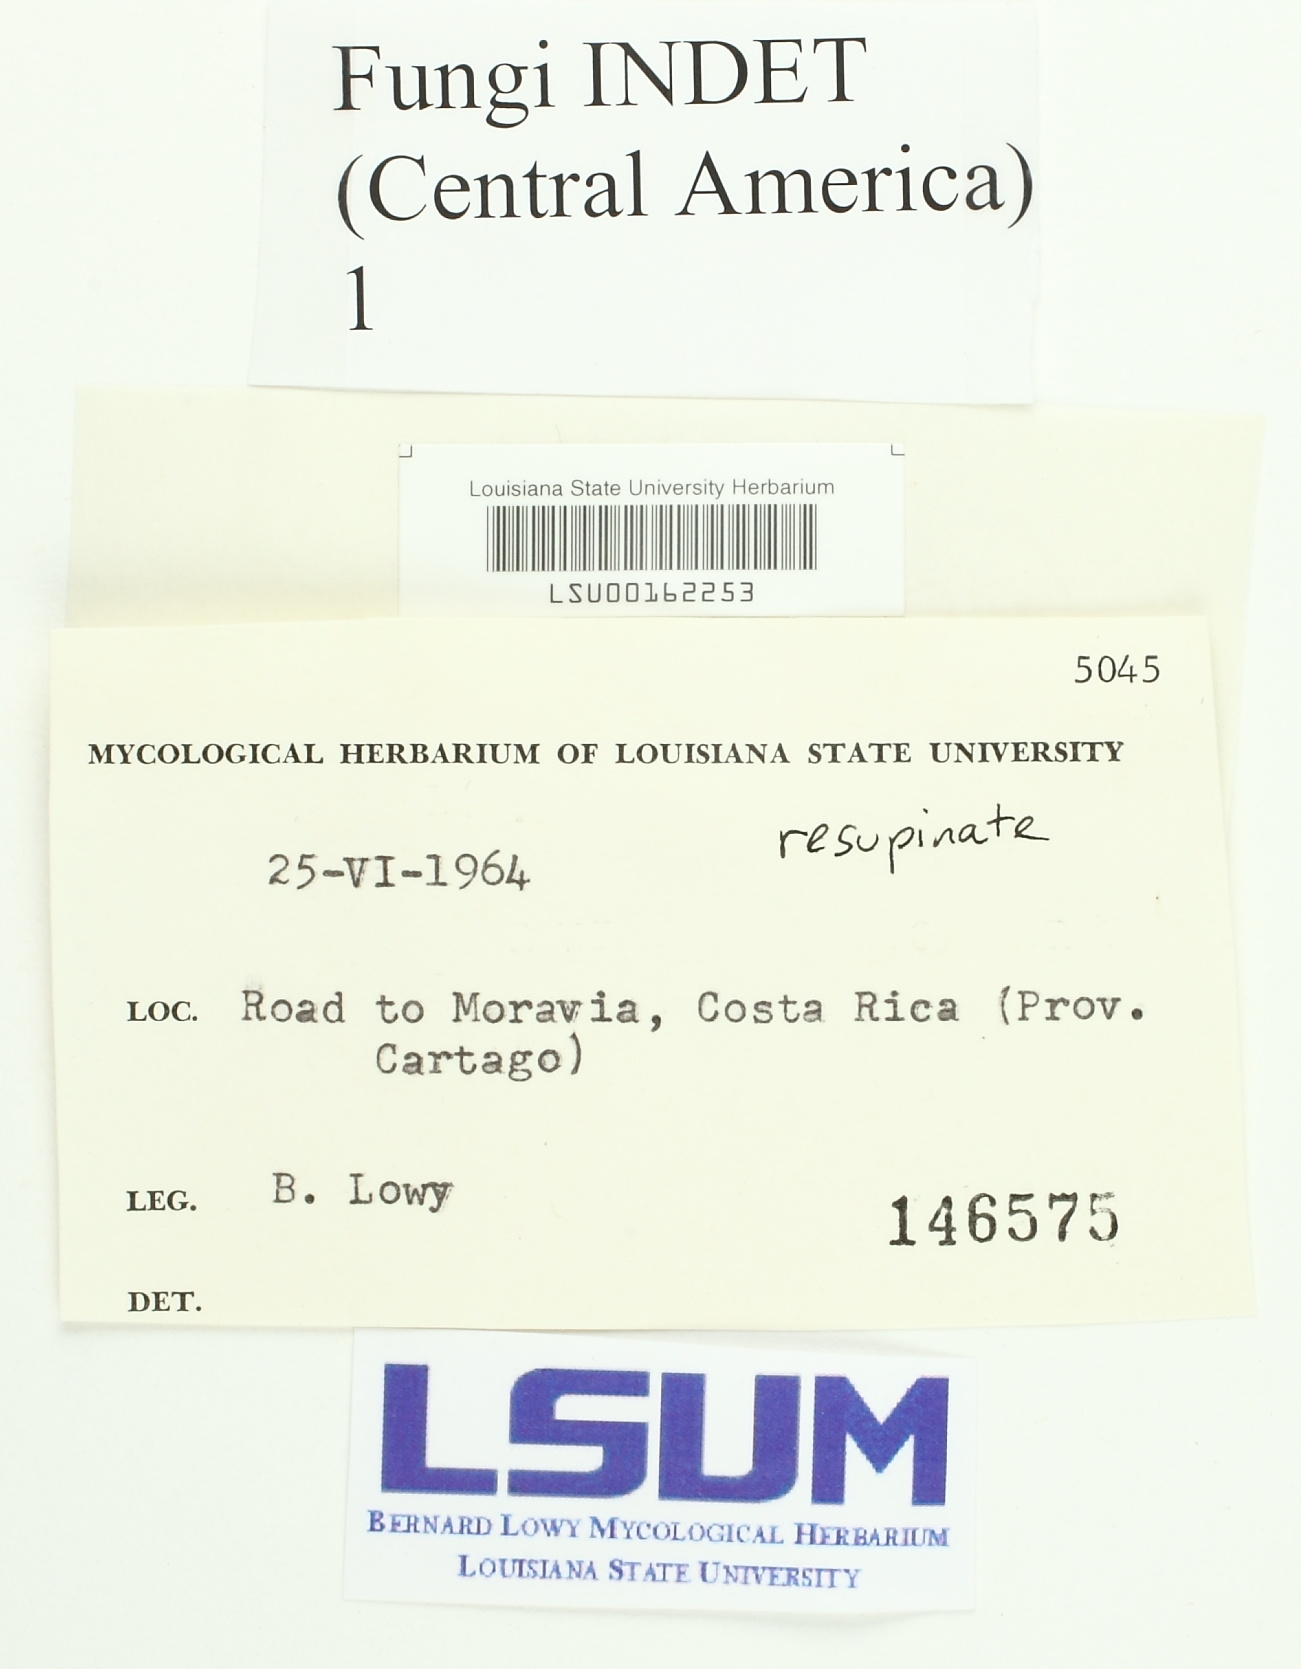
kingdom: Fungi
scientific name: Fungi
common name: Fungi
